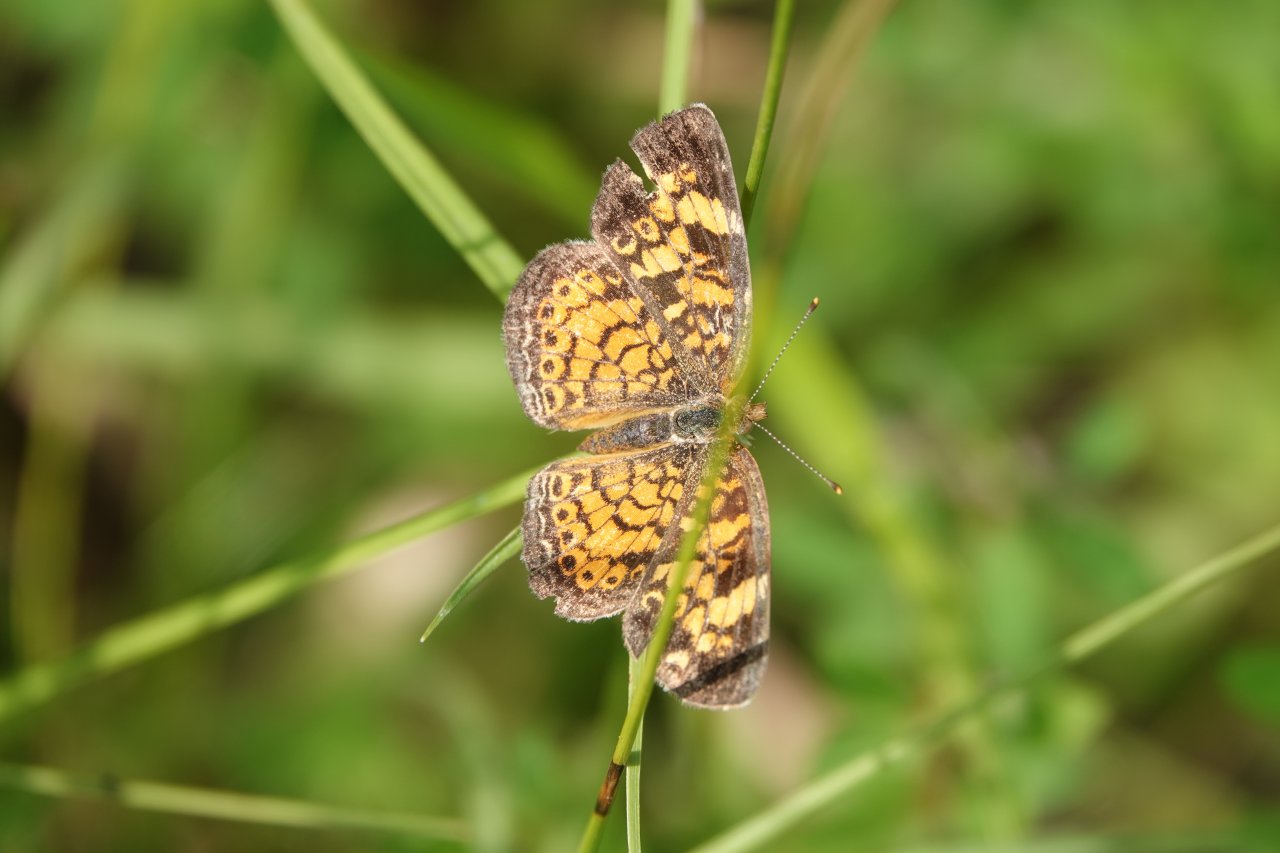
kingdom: Animalia
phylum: Arthropoda
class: Insecta
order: Lepidoptera
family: Nymphalidae
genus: Phyciodes
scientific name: Phyciodes tharos
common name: Pearl Crescent
